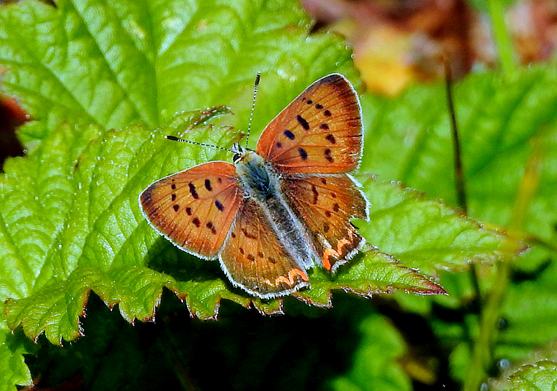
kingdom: Animalia
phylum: Arthropoda
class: Insecta
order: Lepidoptera
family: Sesiidae
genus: Sesia
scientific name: Sesia Lycaena helloides
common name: Purplish Copper
